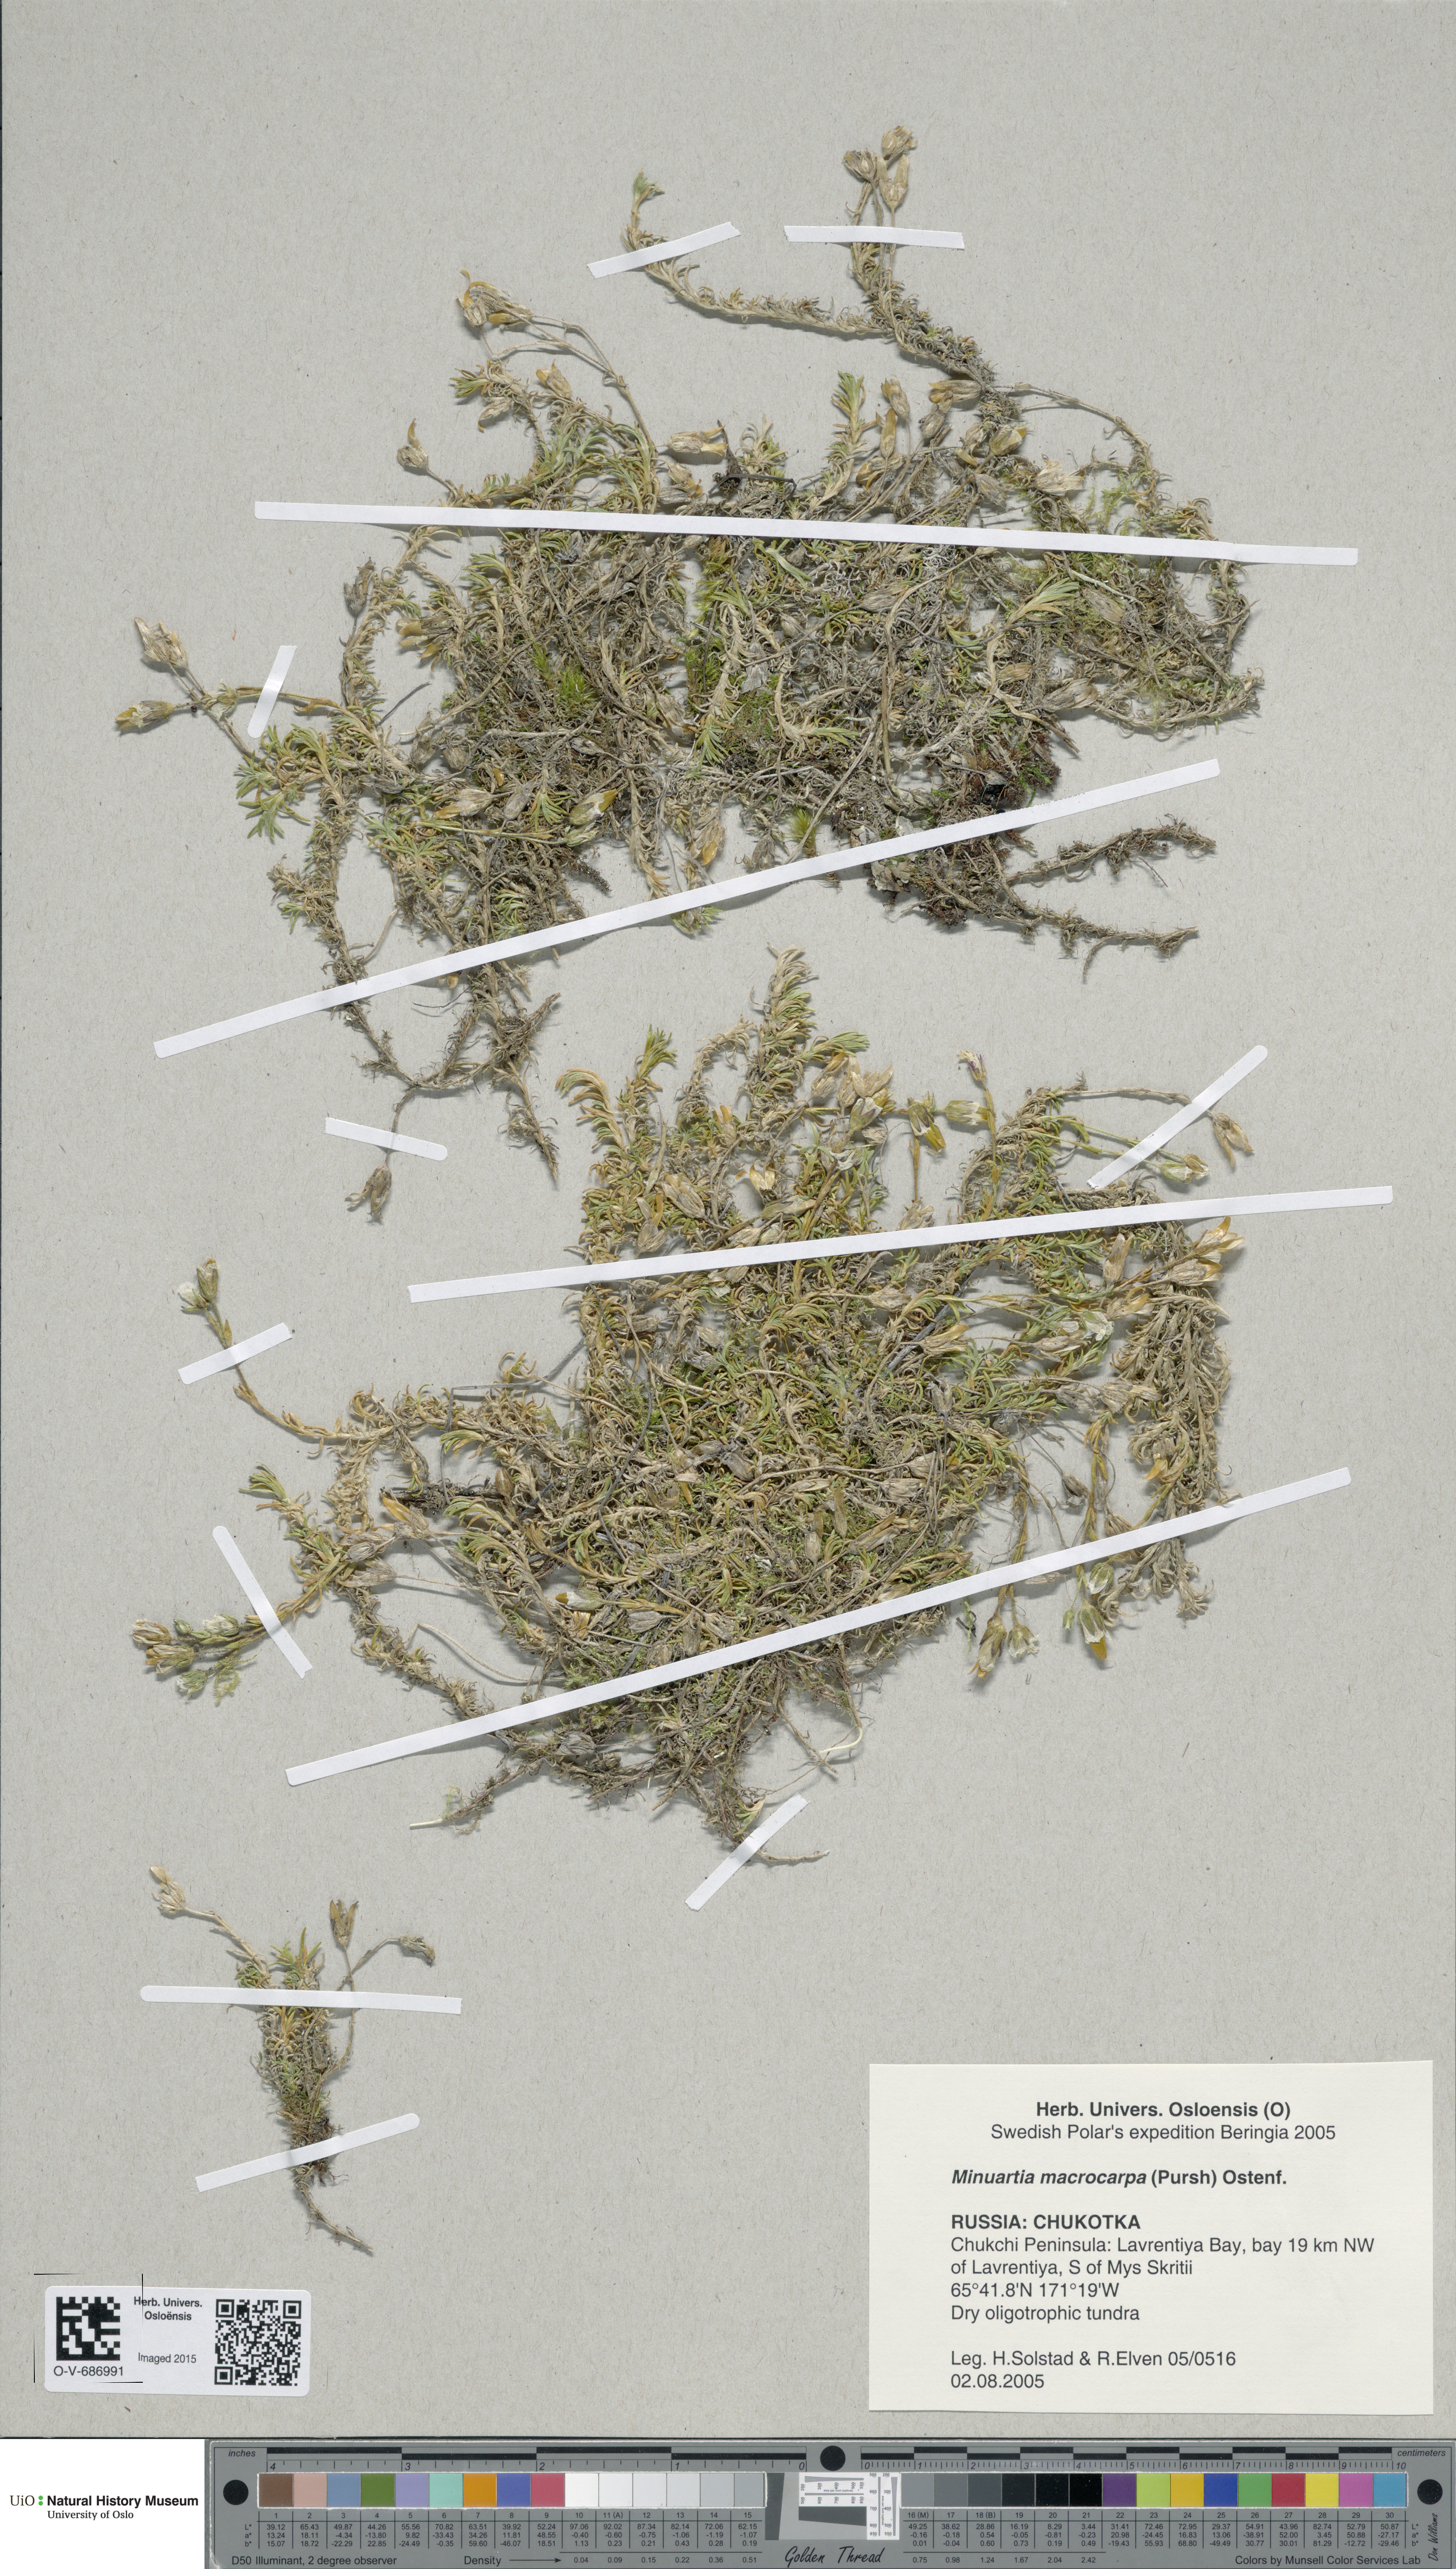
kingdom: Plantae
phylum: Tracheophyta
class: Magnoliopsida
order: Caryophyllales
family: Caryophyllaceae
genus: Pseudocherleria
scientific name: Pseudocherleria macrocarpa
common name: Large-fruit sandwort
